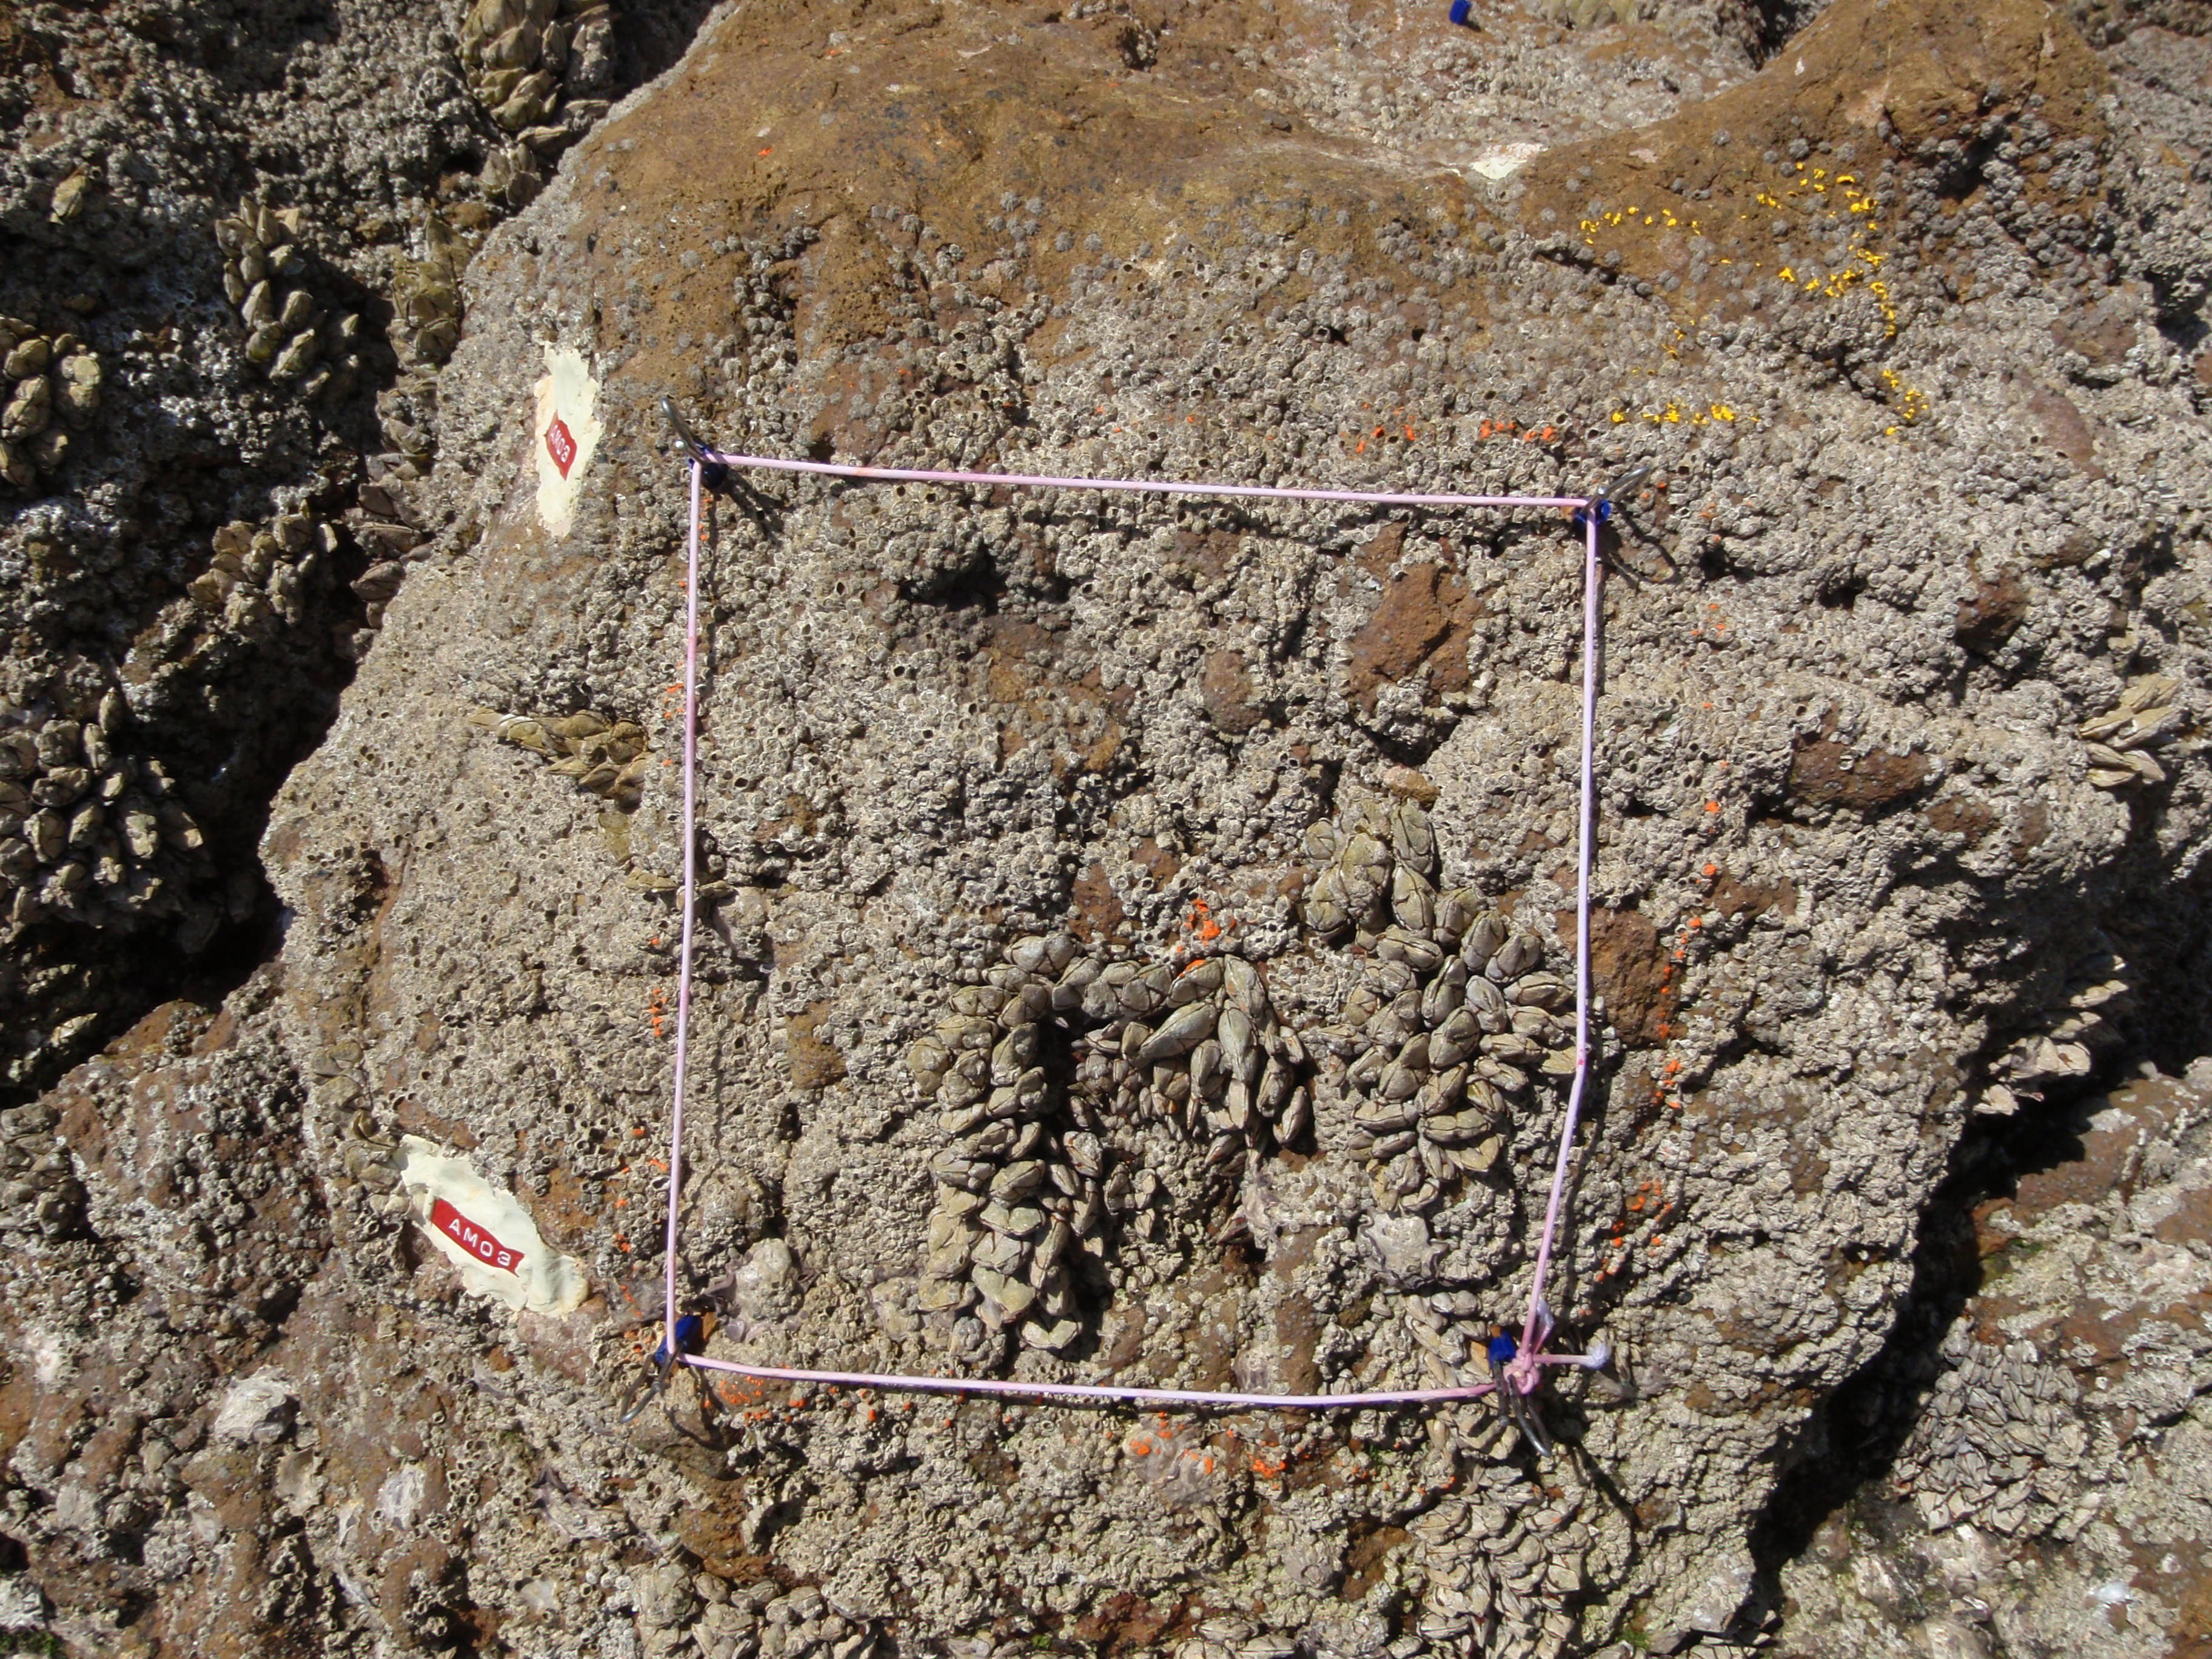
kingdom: Animalia
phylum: Arthropoda
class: Maxillopoda
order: Sessilia
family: Chthamalidae
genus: Chthamalus
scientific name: Chthamalus challengeri
